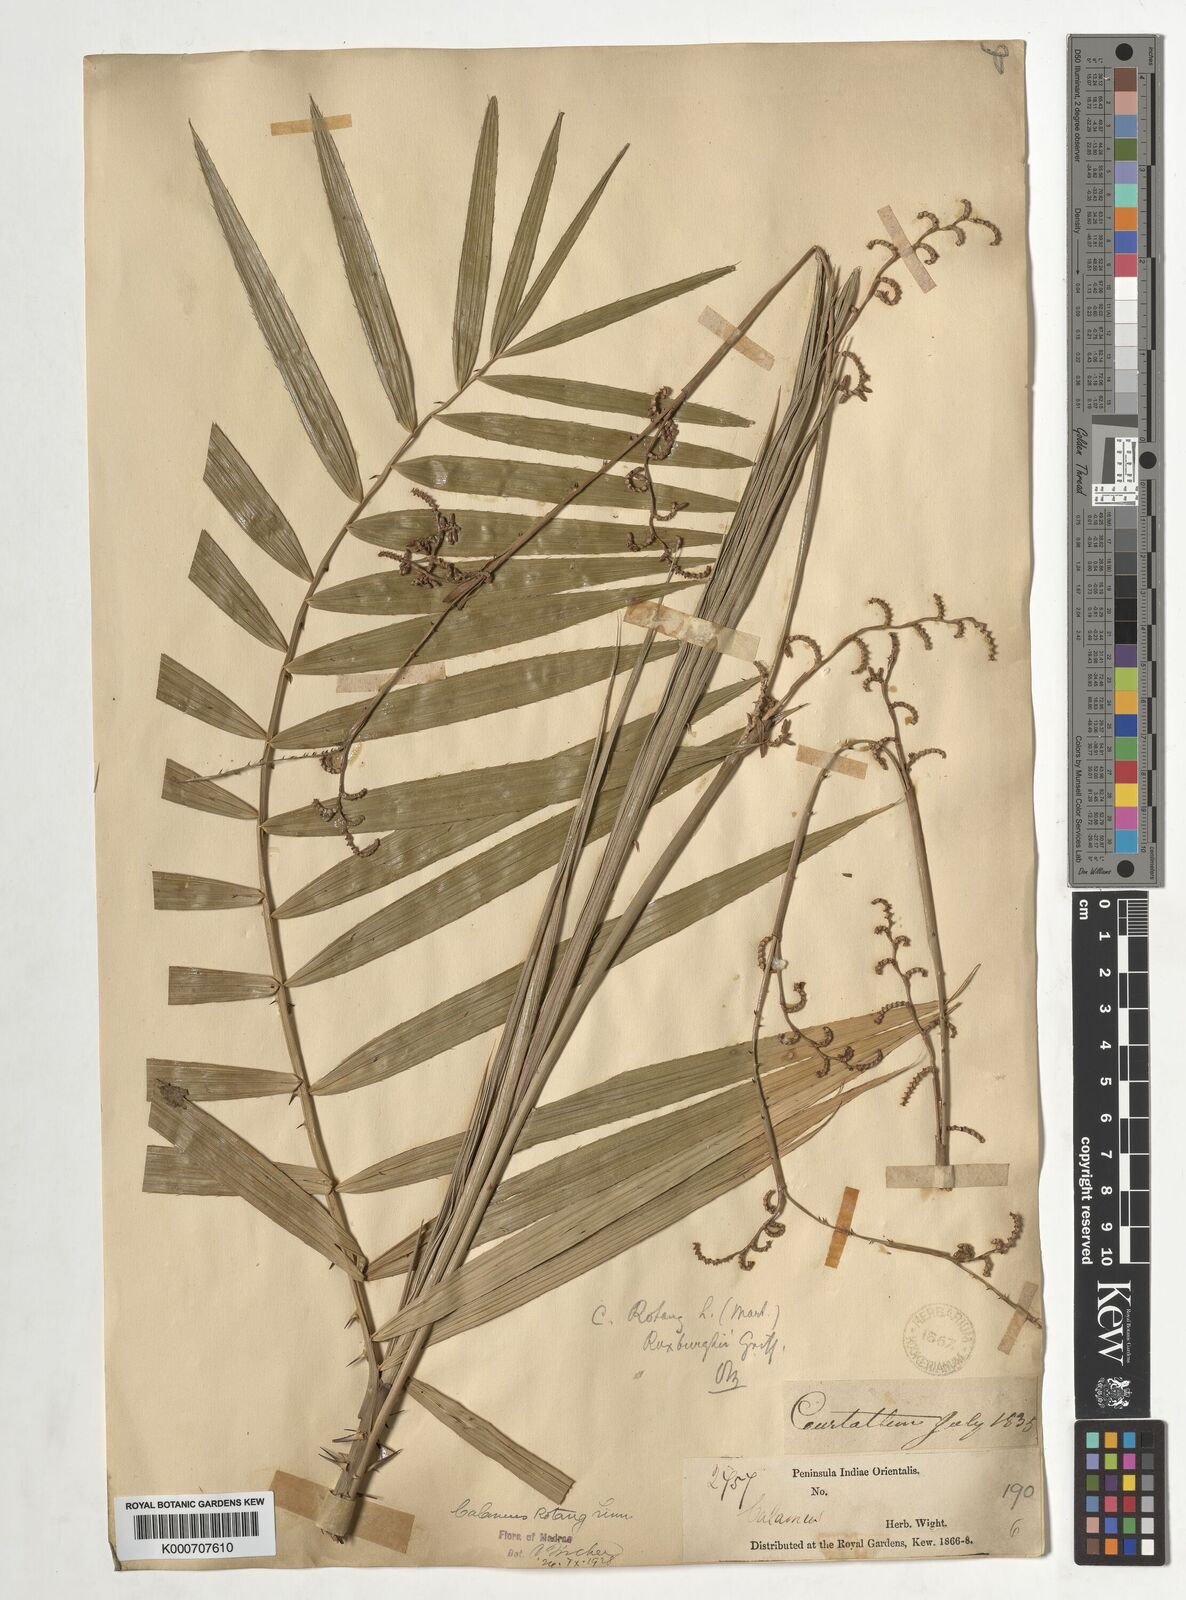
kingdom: Plantae
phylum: Tracheophyta
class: Liliopsida
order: Arecales
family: Arecaceae
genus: Calamus
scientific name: Calamus rotang
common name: Rattan cane
